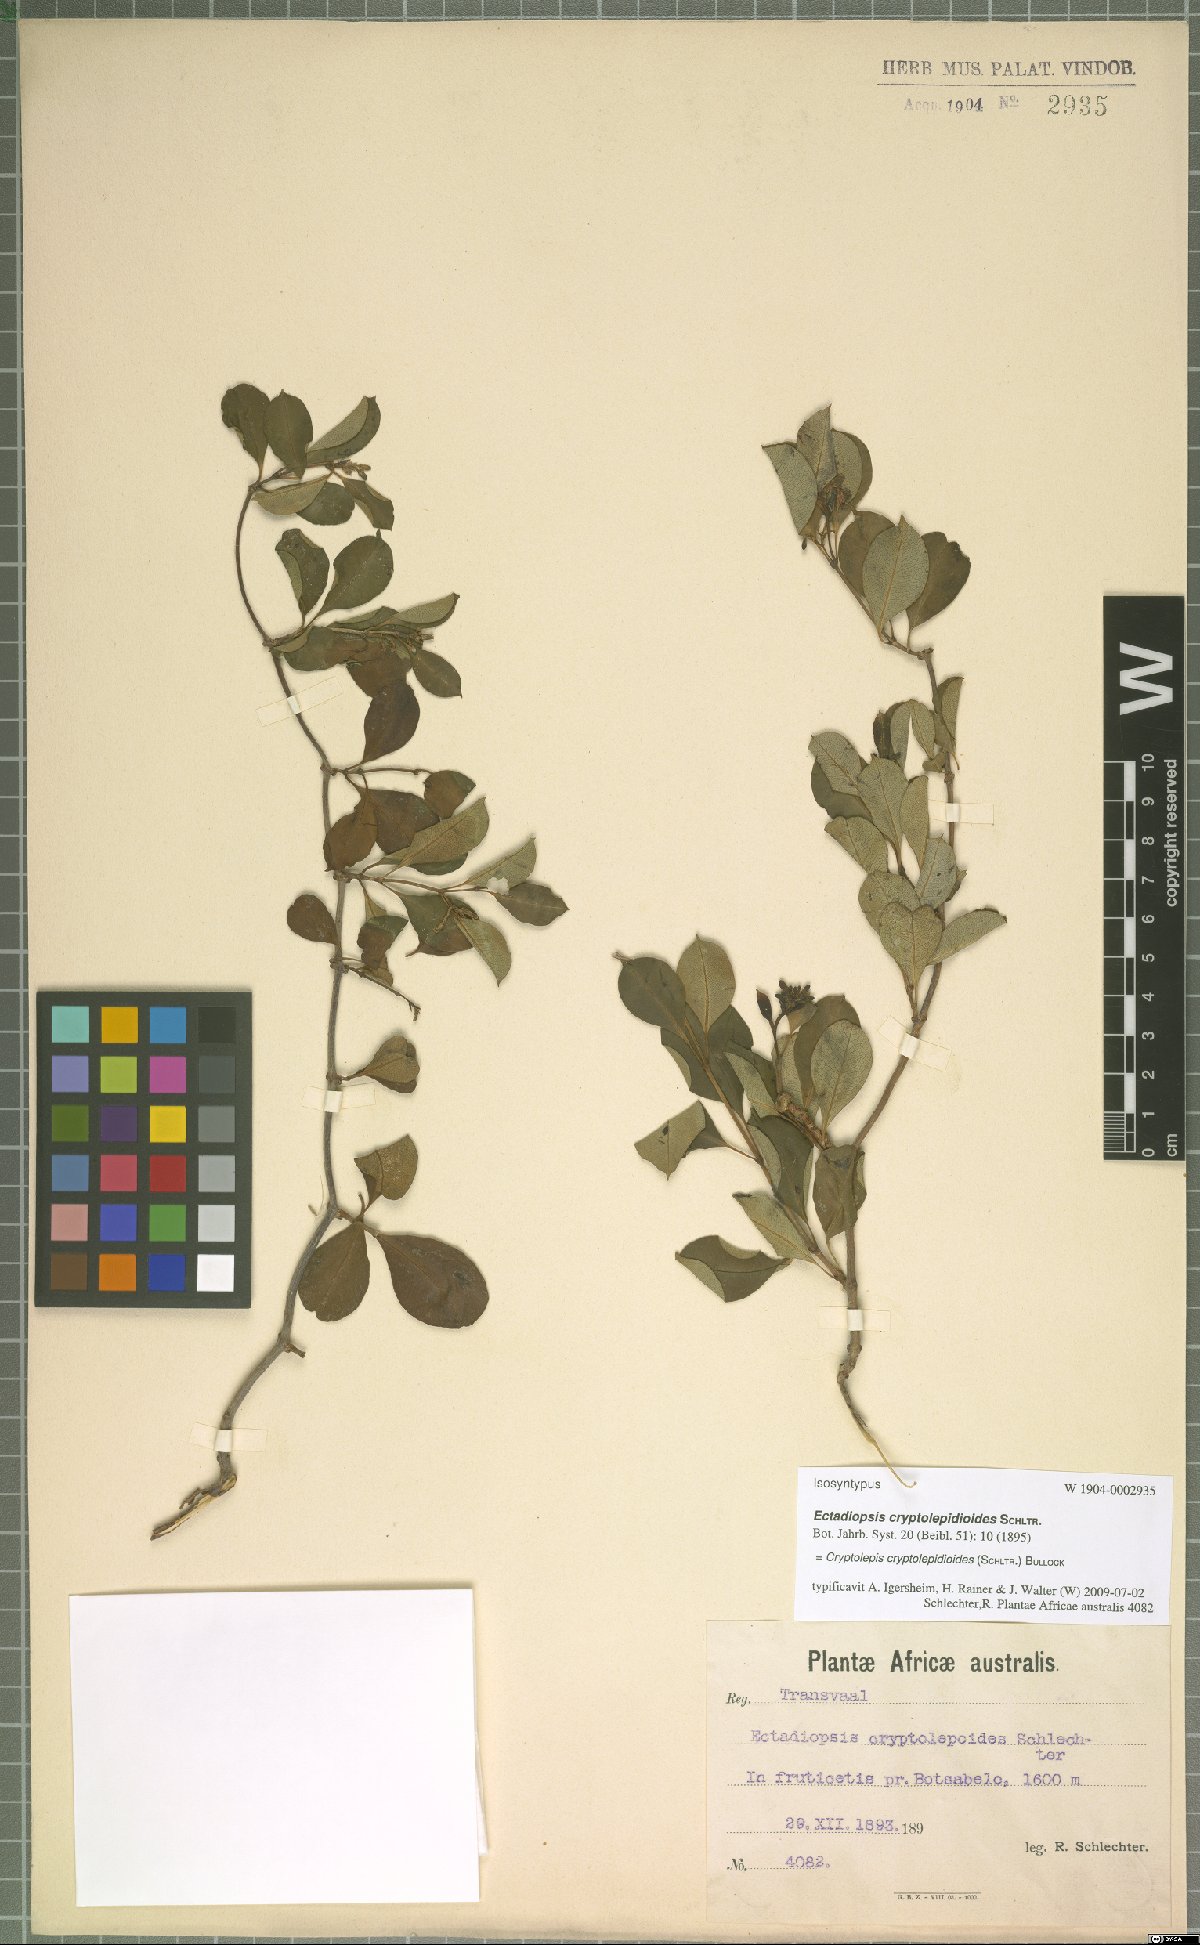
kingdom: Plantae
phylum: Tracheophyta
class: Magnoliopsida
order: Gentianales
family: Apocynaceae
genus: Cryptolepis
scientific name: Cryptolepis cryptolepioides
